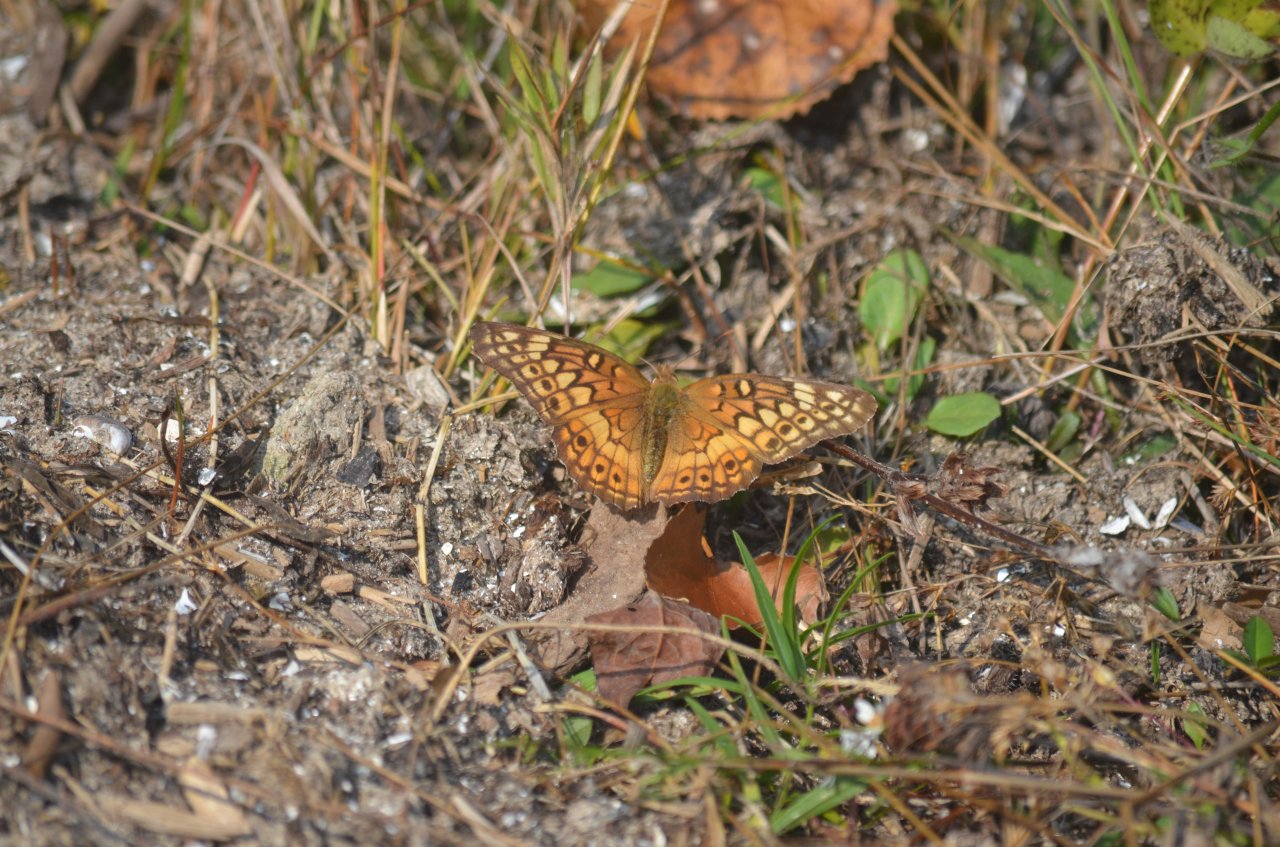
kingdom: Animalia
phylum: Arthropoda
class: Insecta
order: Lepidoptera
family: Nymphalidae
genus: Euptoieta
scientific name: Euptoieta claudia
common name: Variegated Fritillary
